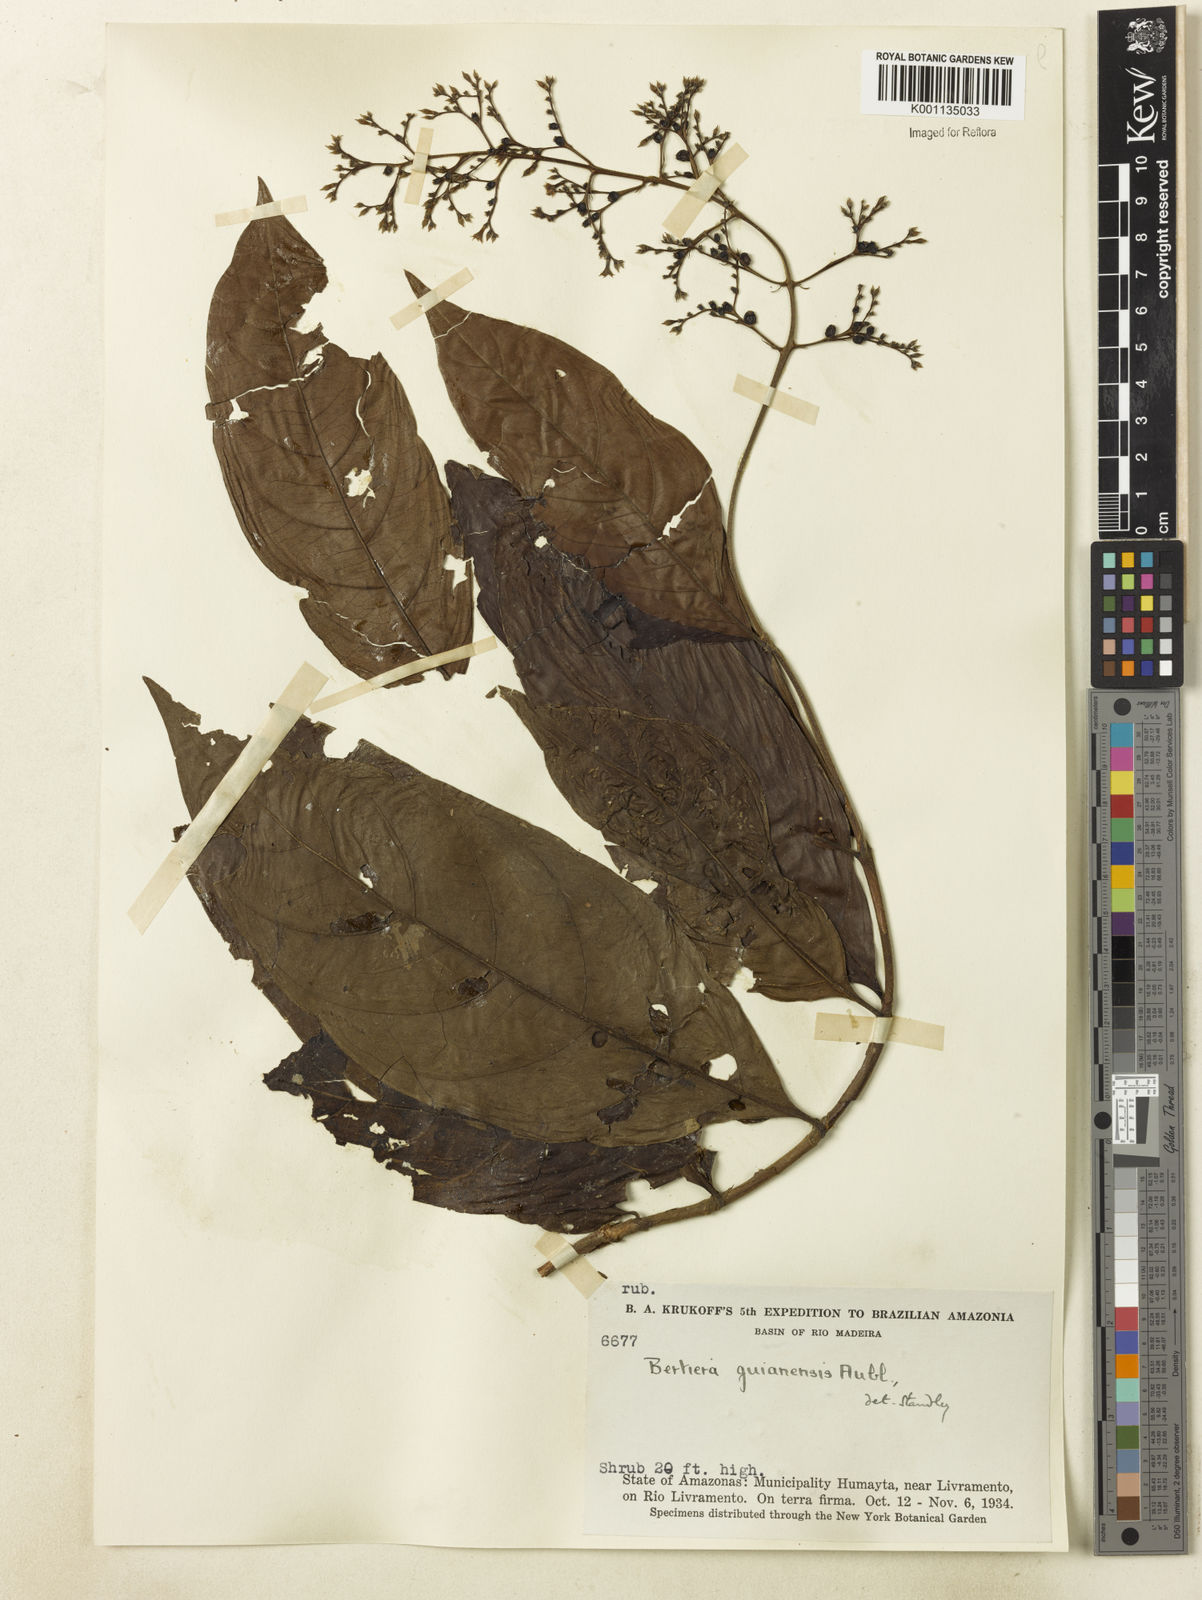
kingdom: Plantae
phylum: Tracheophyta
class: Magnoliopsida
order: Gentianales
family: Rubiaceae
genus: Bertiera
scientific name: Bertiera guianensis
